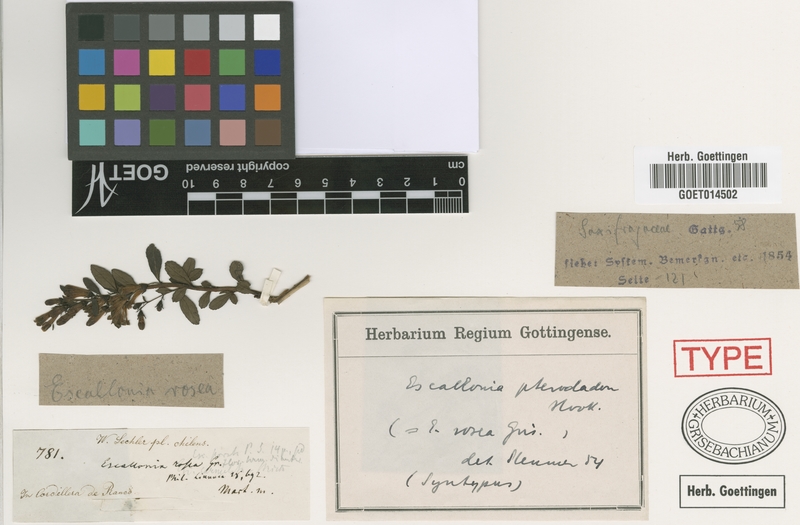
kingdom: Plantae
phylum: Tracheophyta
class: Magnoliopsida
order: Escalloniales
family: Escalloniaceae
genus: Escallonia
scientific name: Escallonia rosea
